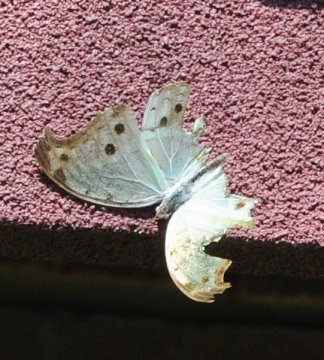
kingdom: Animalia
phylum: Arthropoda
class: Insecta
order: Lepidoptera
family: Nymphalidae
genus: Salamis
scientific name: Salamis Protogoniomorpha parhassus
